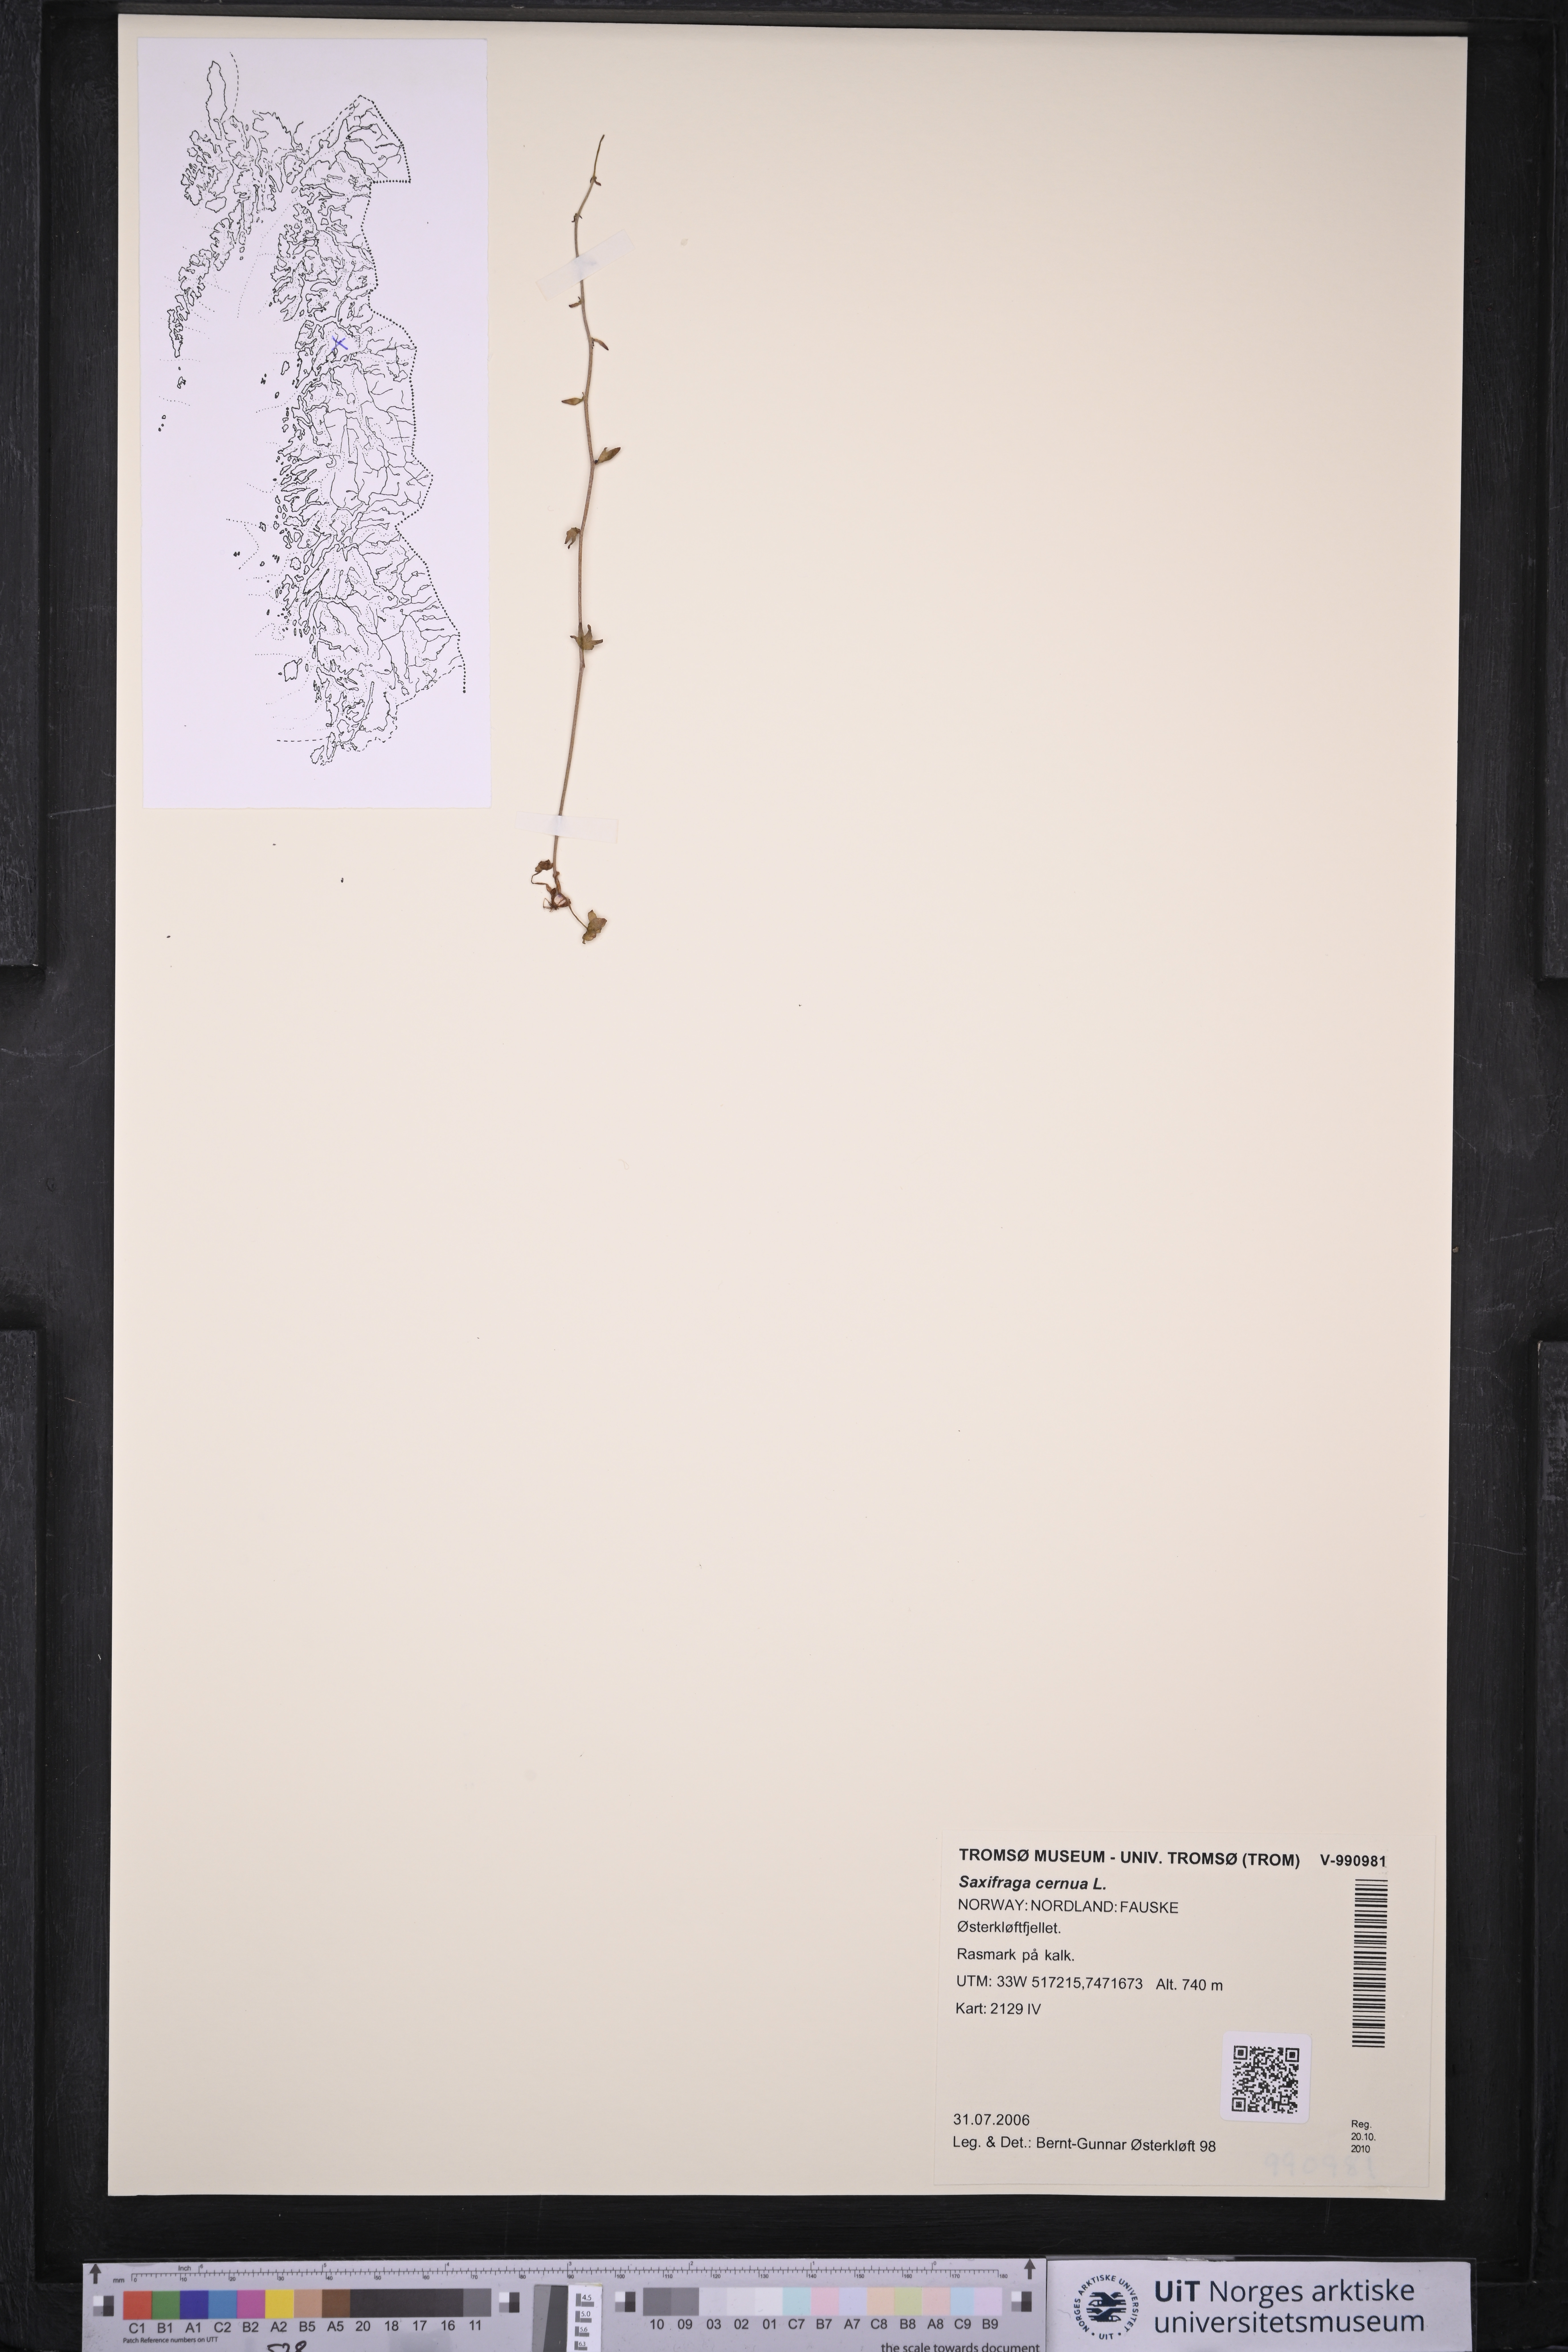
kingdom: Plantae
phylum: Tracheophyta
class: Magnoliopsida
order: Saxifragales
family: Saxifragaceae
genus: Saxifraga
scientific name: Saxifraga cernua
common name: Drooping saxifrage
